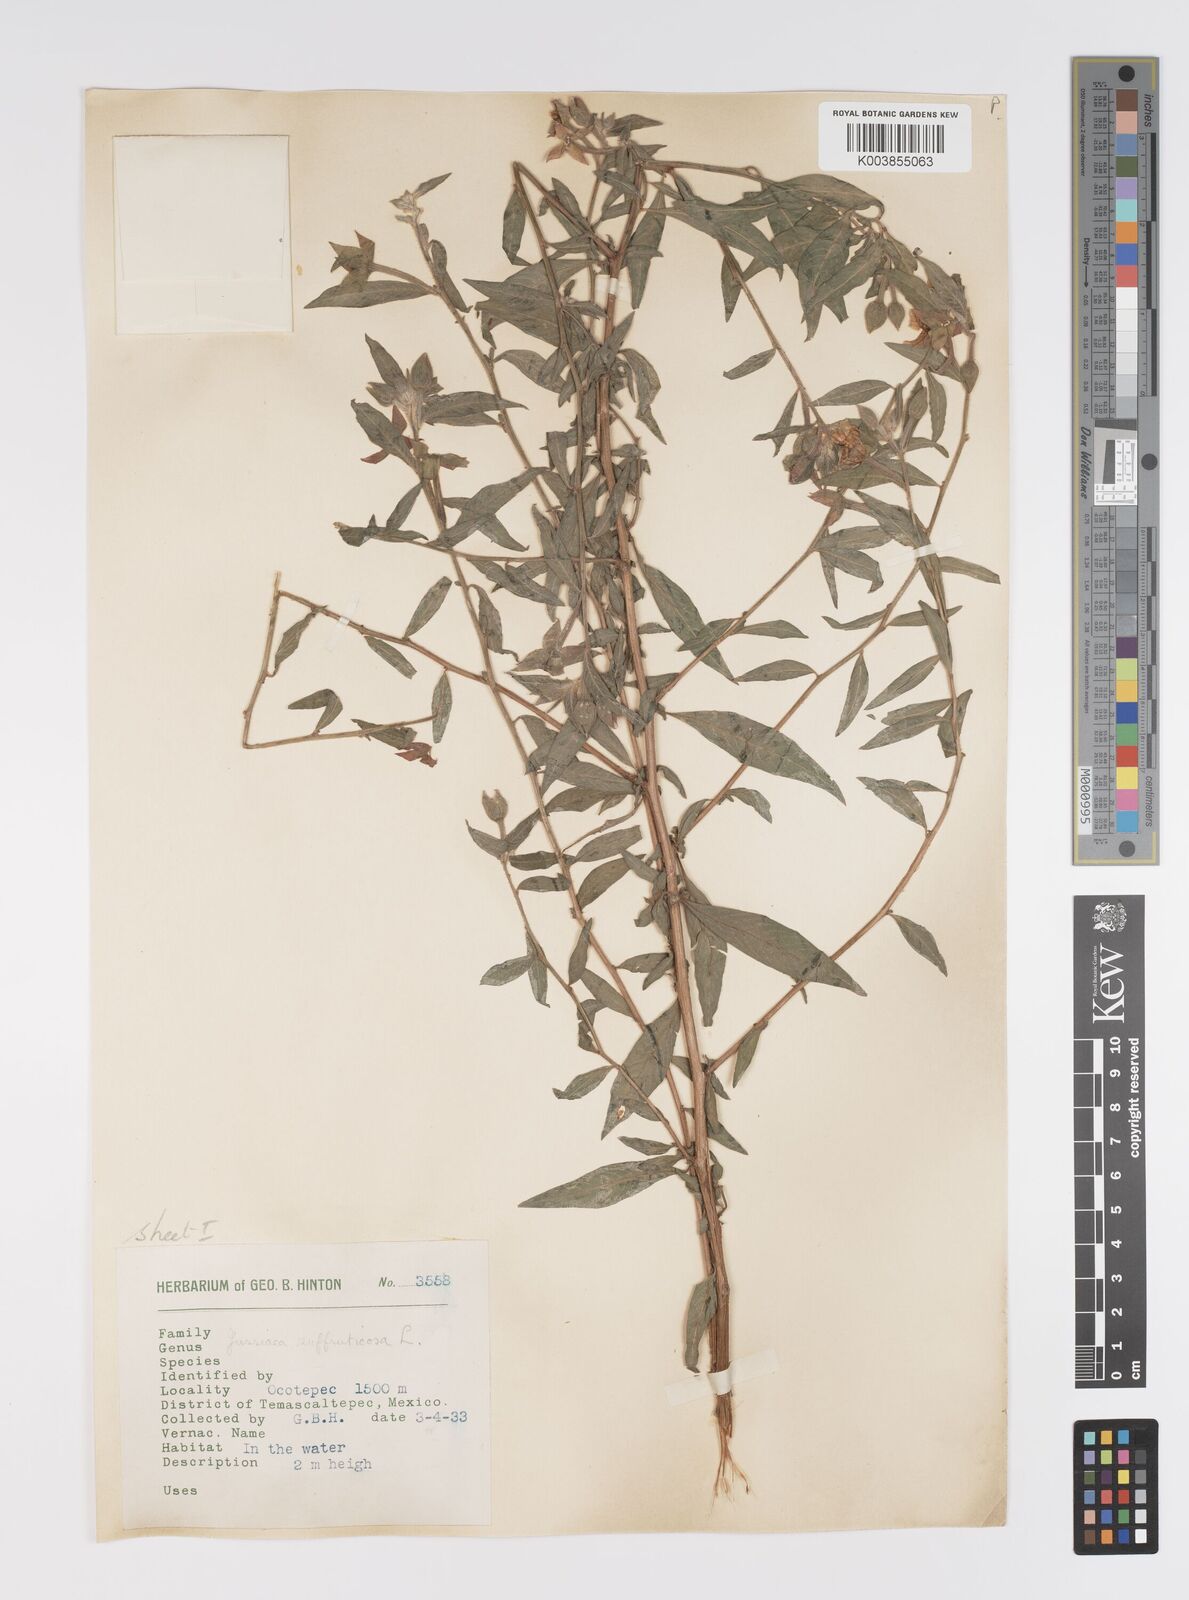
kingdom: Plantae
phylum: Tracheophyta
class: Magnoliopsida
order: Myrtales
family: Onagraceae
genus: Ludwigia
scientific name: Ludwigia octovalvis
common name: Water-primrose
